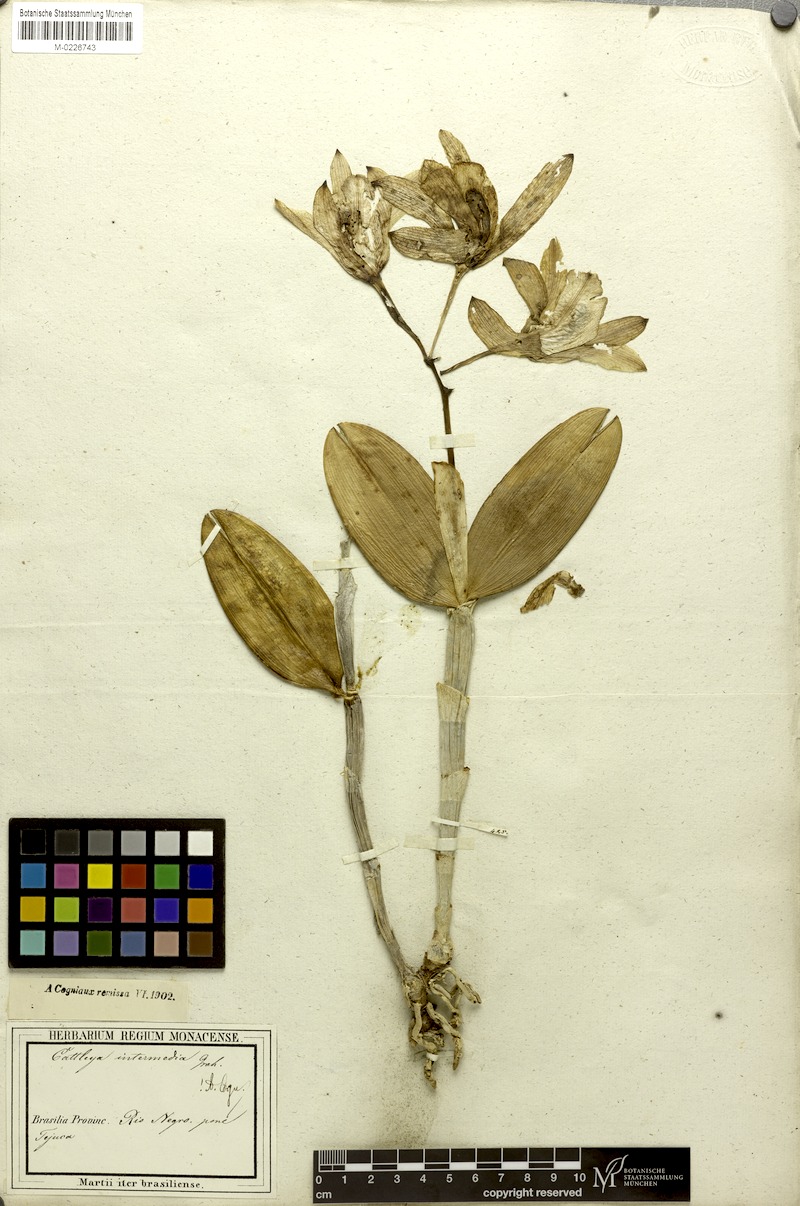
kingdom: Plantae
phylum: Tracheophyta
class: Liliopsida
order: Asparagales
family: Orchidaceae
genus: Cattleya
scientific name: Cattleya intermedia
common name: Intermediate cattleya
